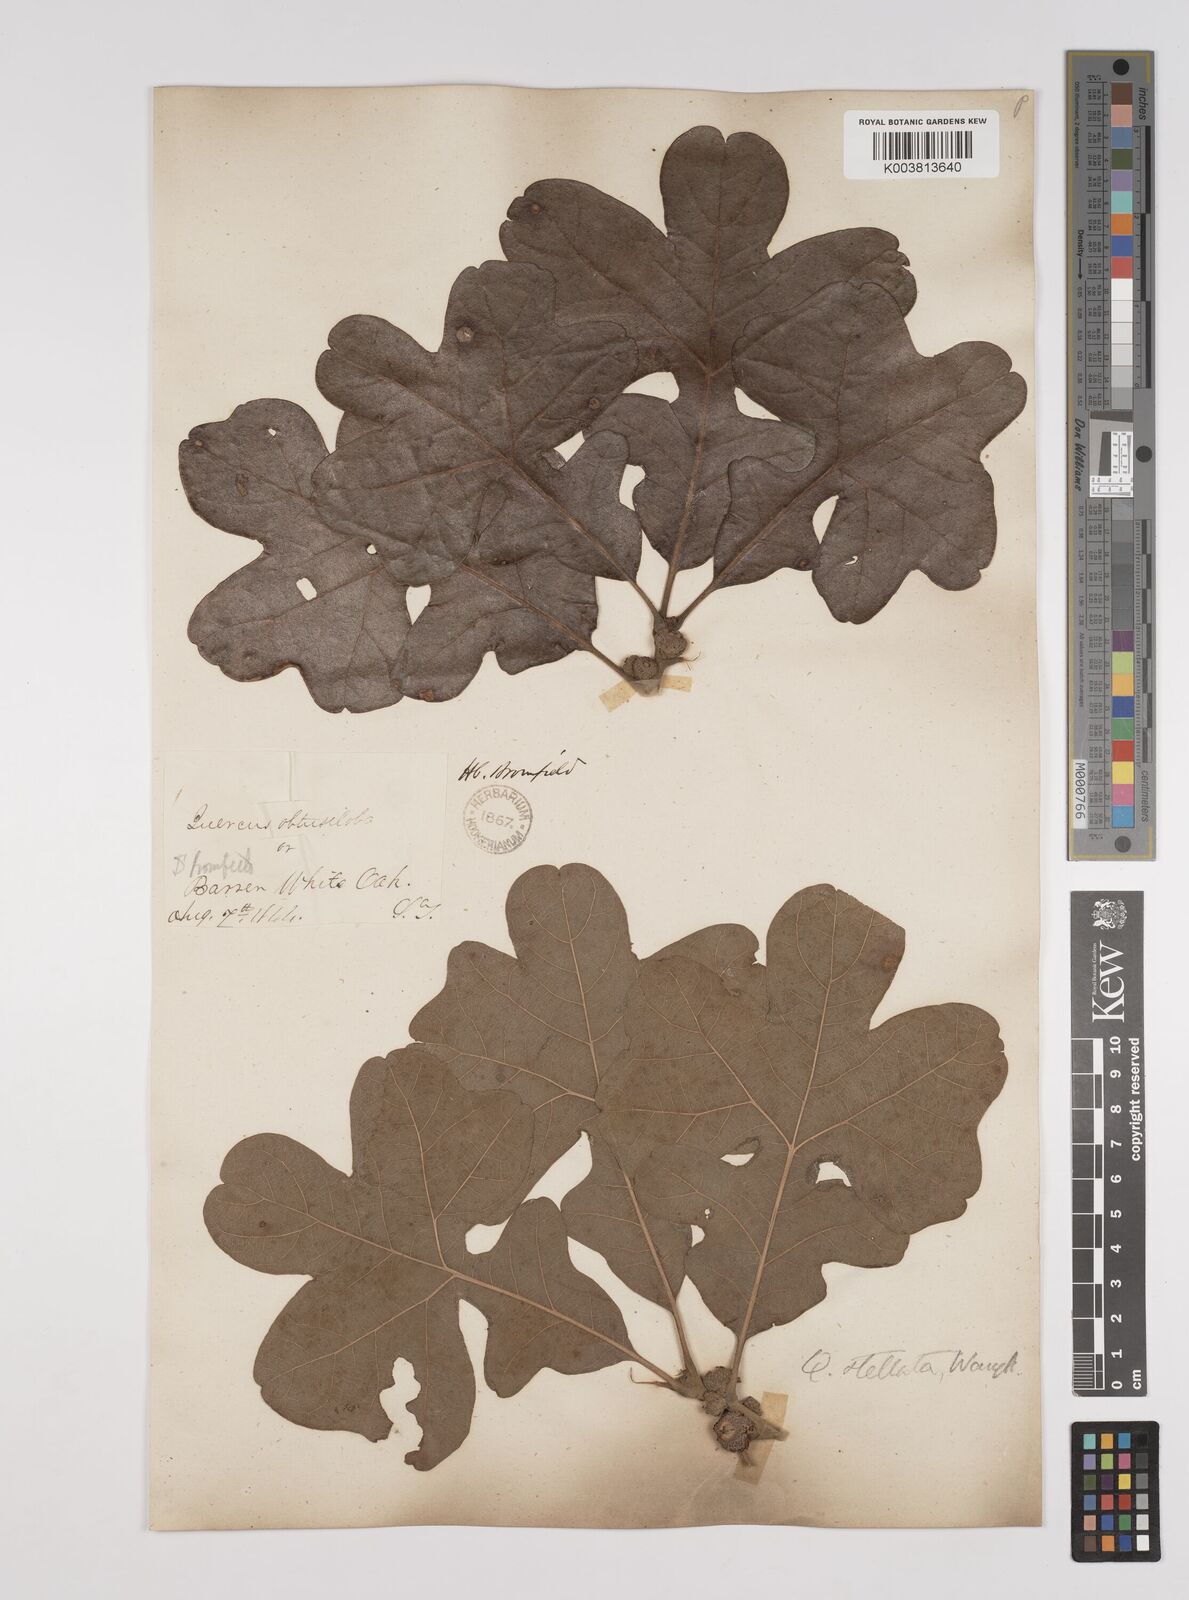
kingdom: Plantae
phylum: Tracheophyta
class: Magnoliopsida
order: Fagales
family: Fagaceae
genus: Quercus
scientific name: Quercus stellata
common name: Post oak
